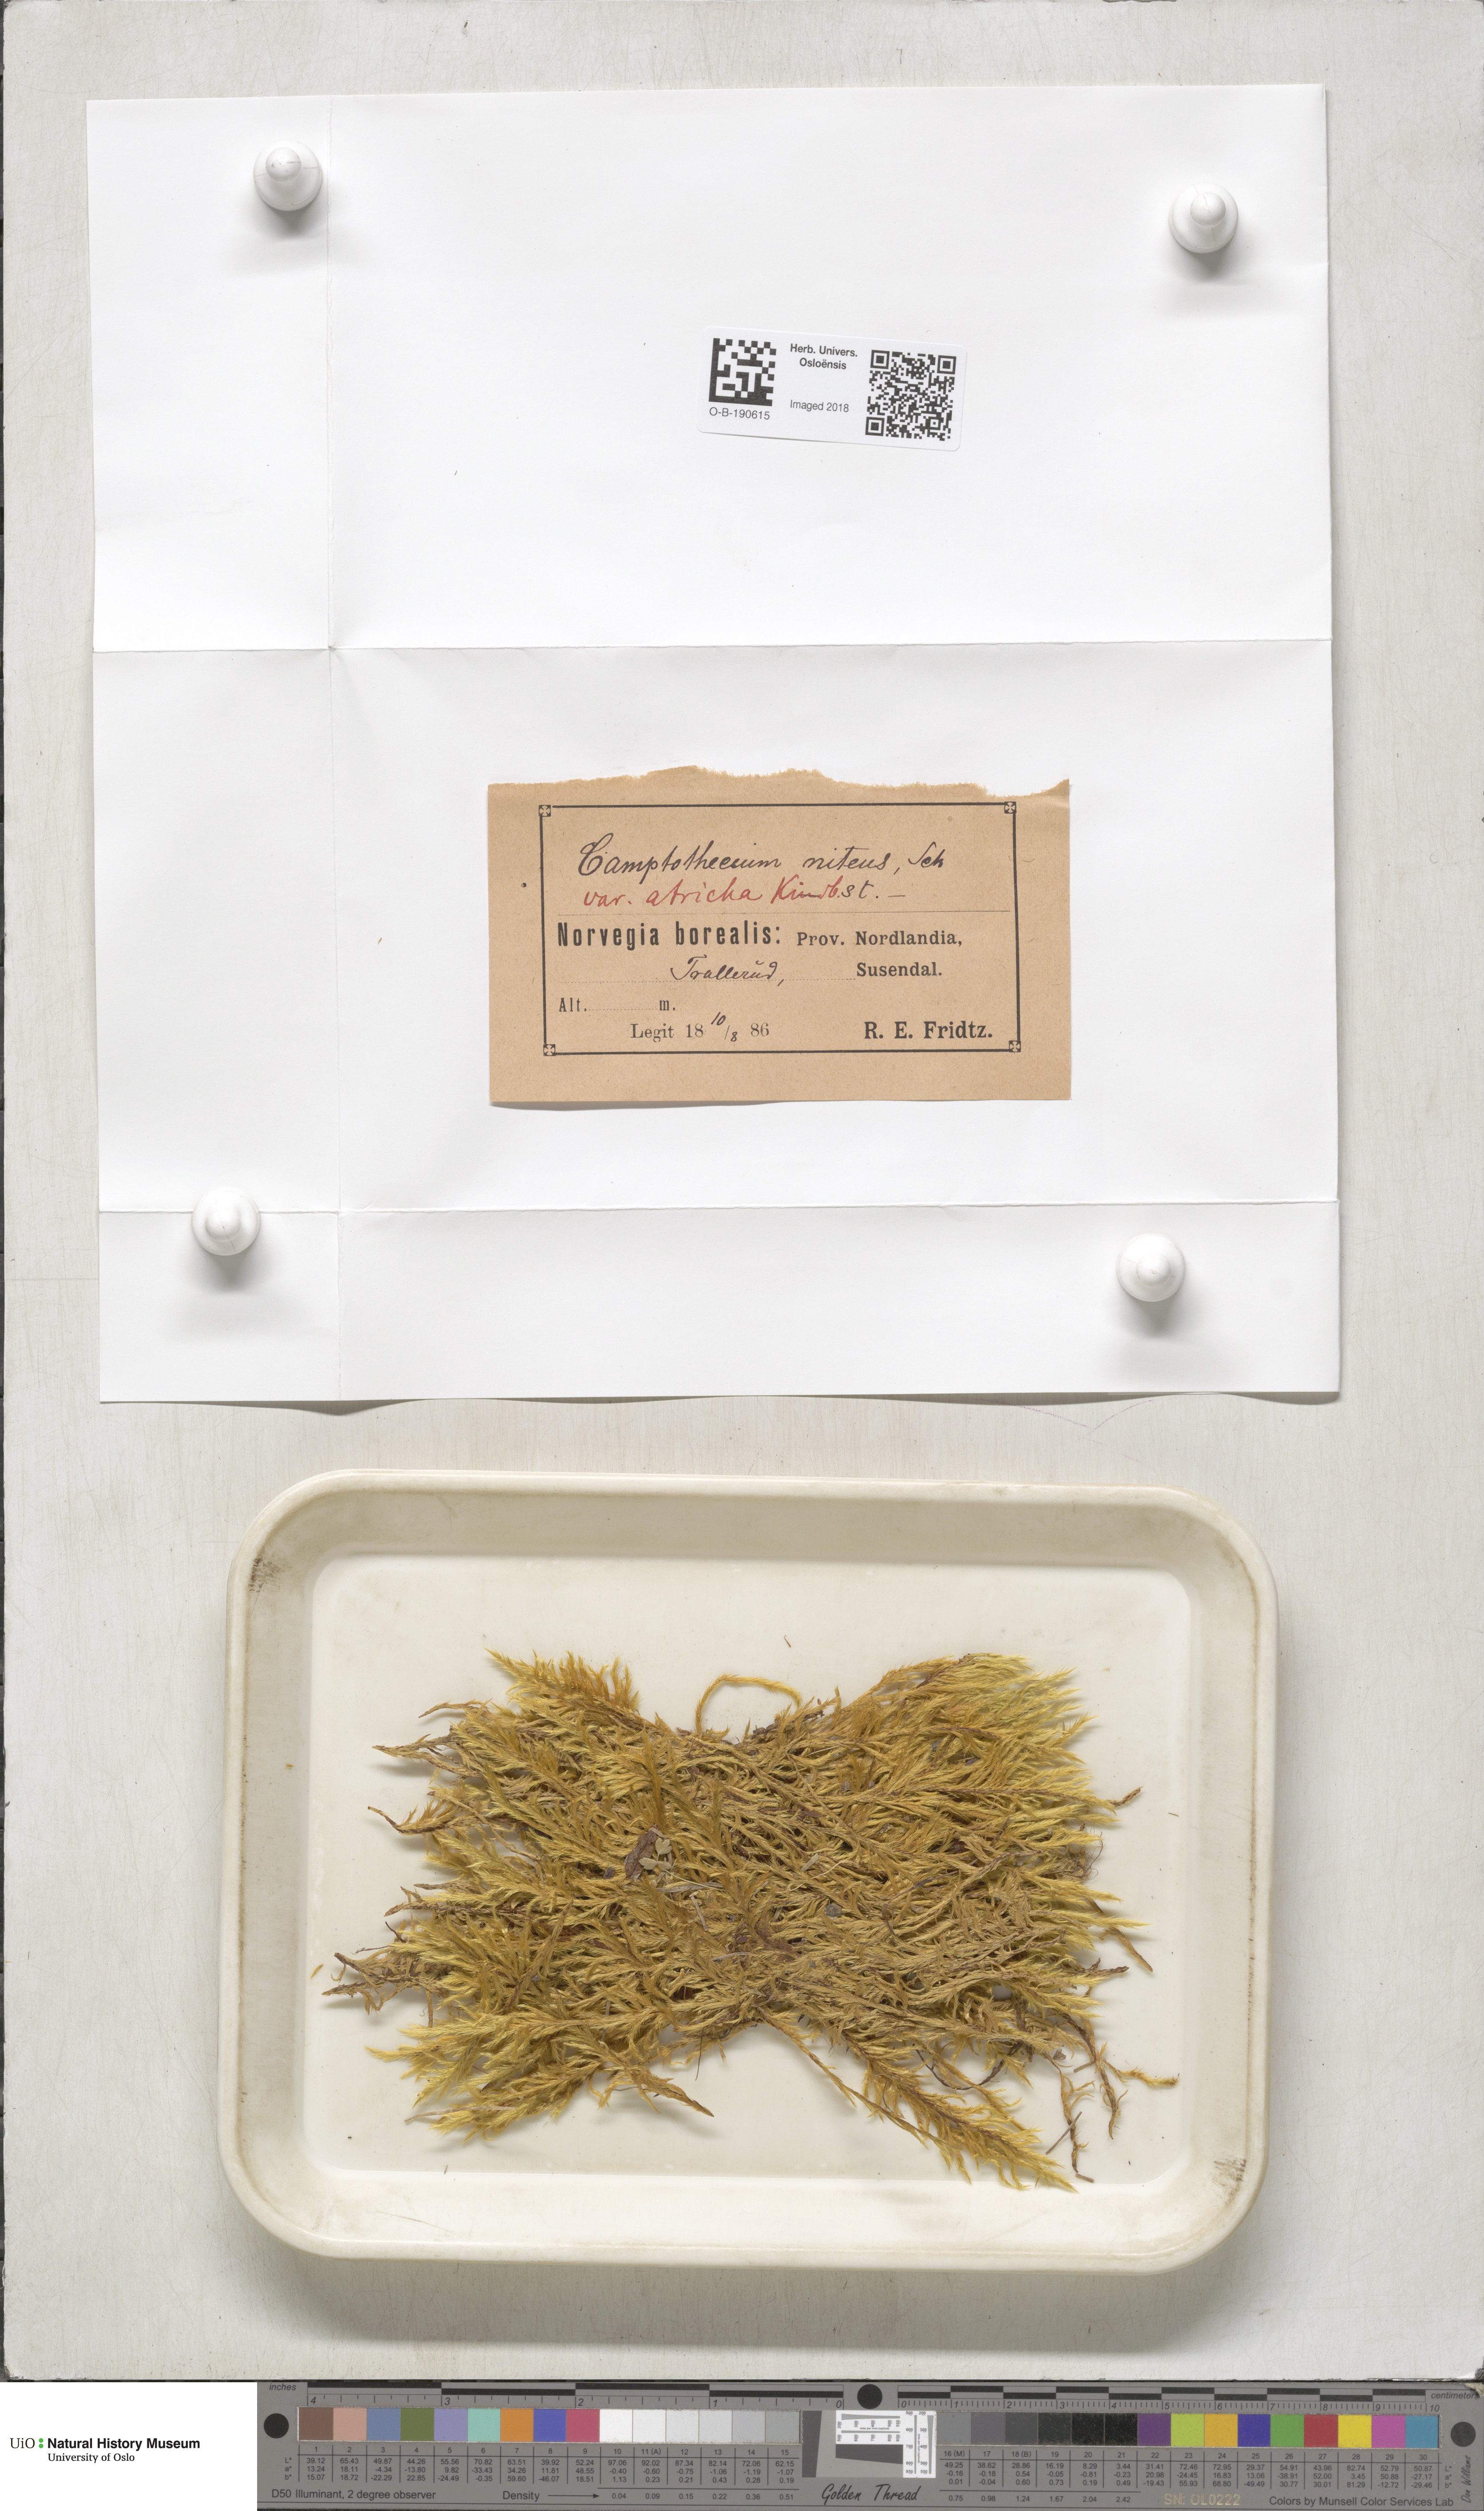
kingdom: Plantae
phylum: Bryophyta
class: Bryopsida
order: Hypnales
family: Amblystegiaceae
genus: Tomentypnum
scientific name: Tomentypnum nitens
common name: Golden fuzzy fen moss
